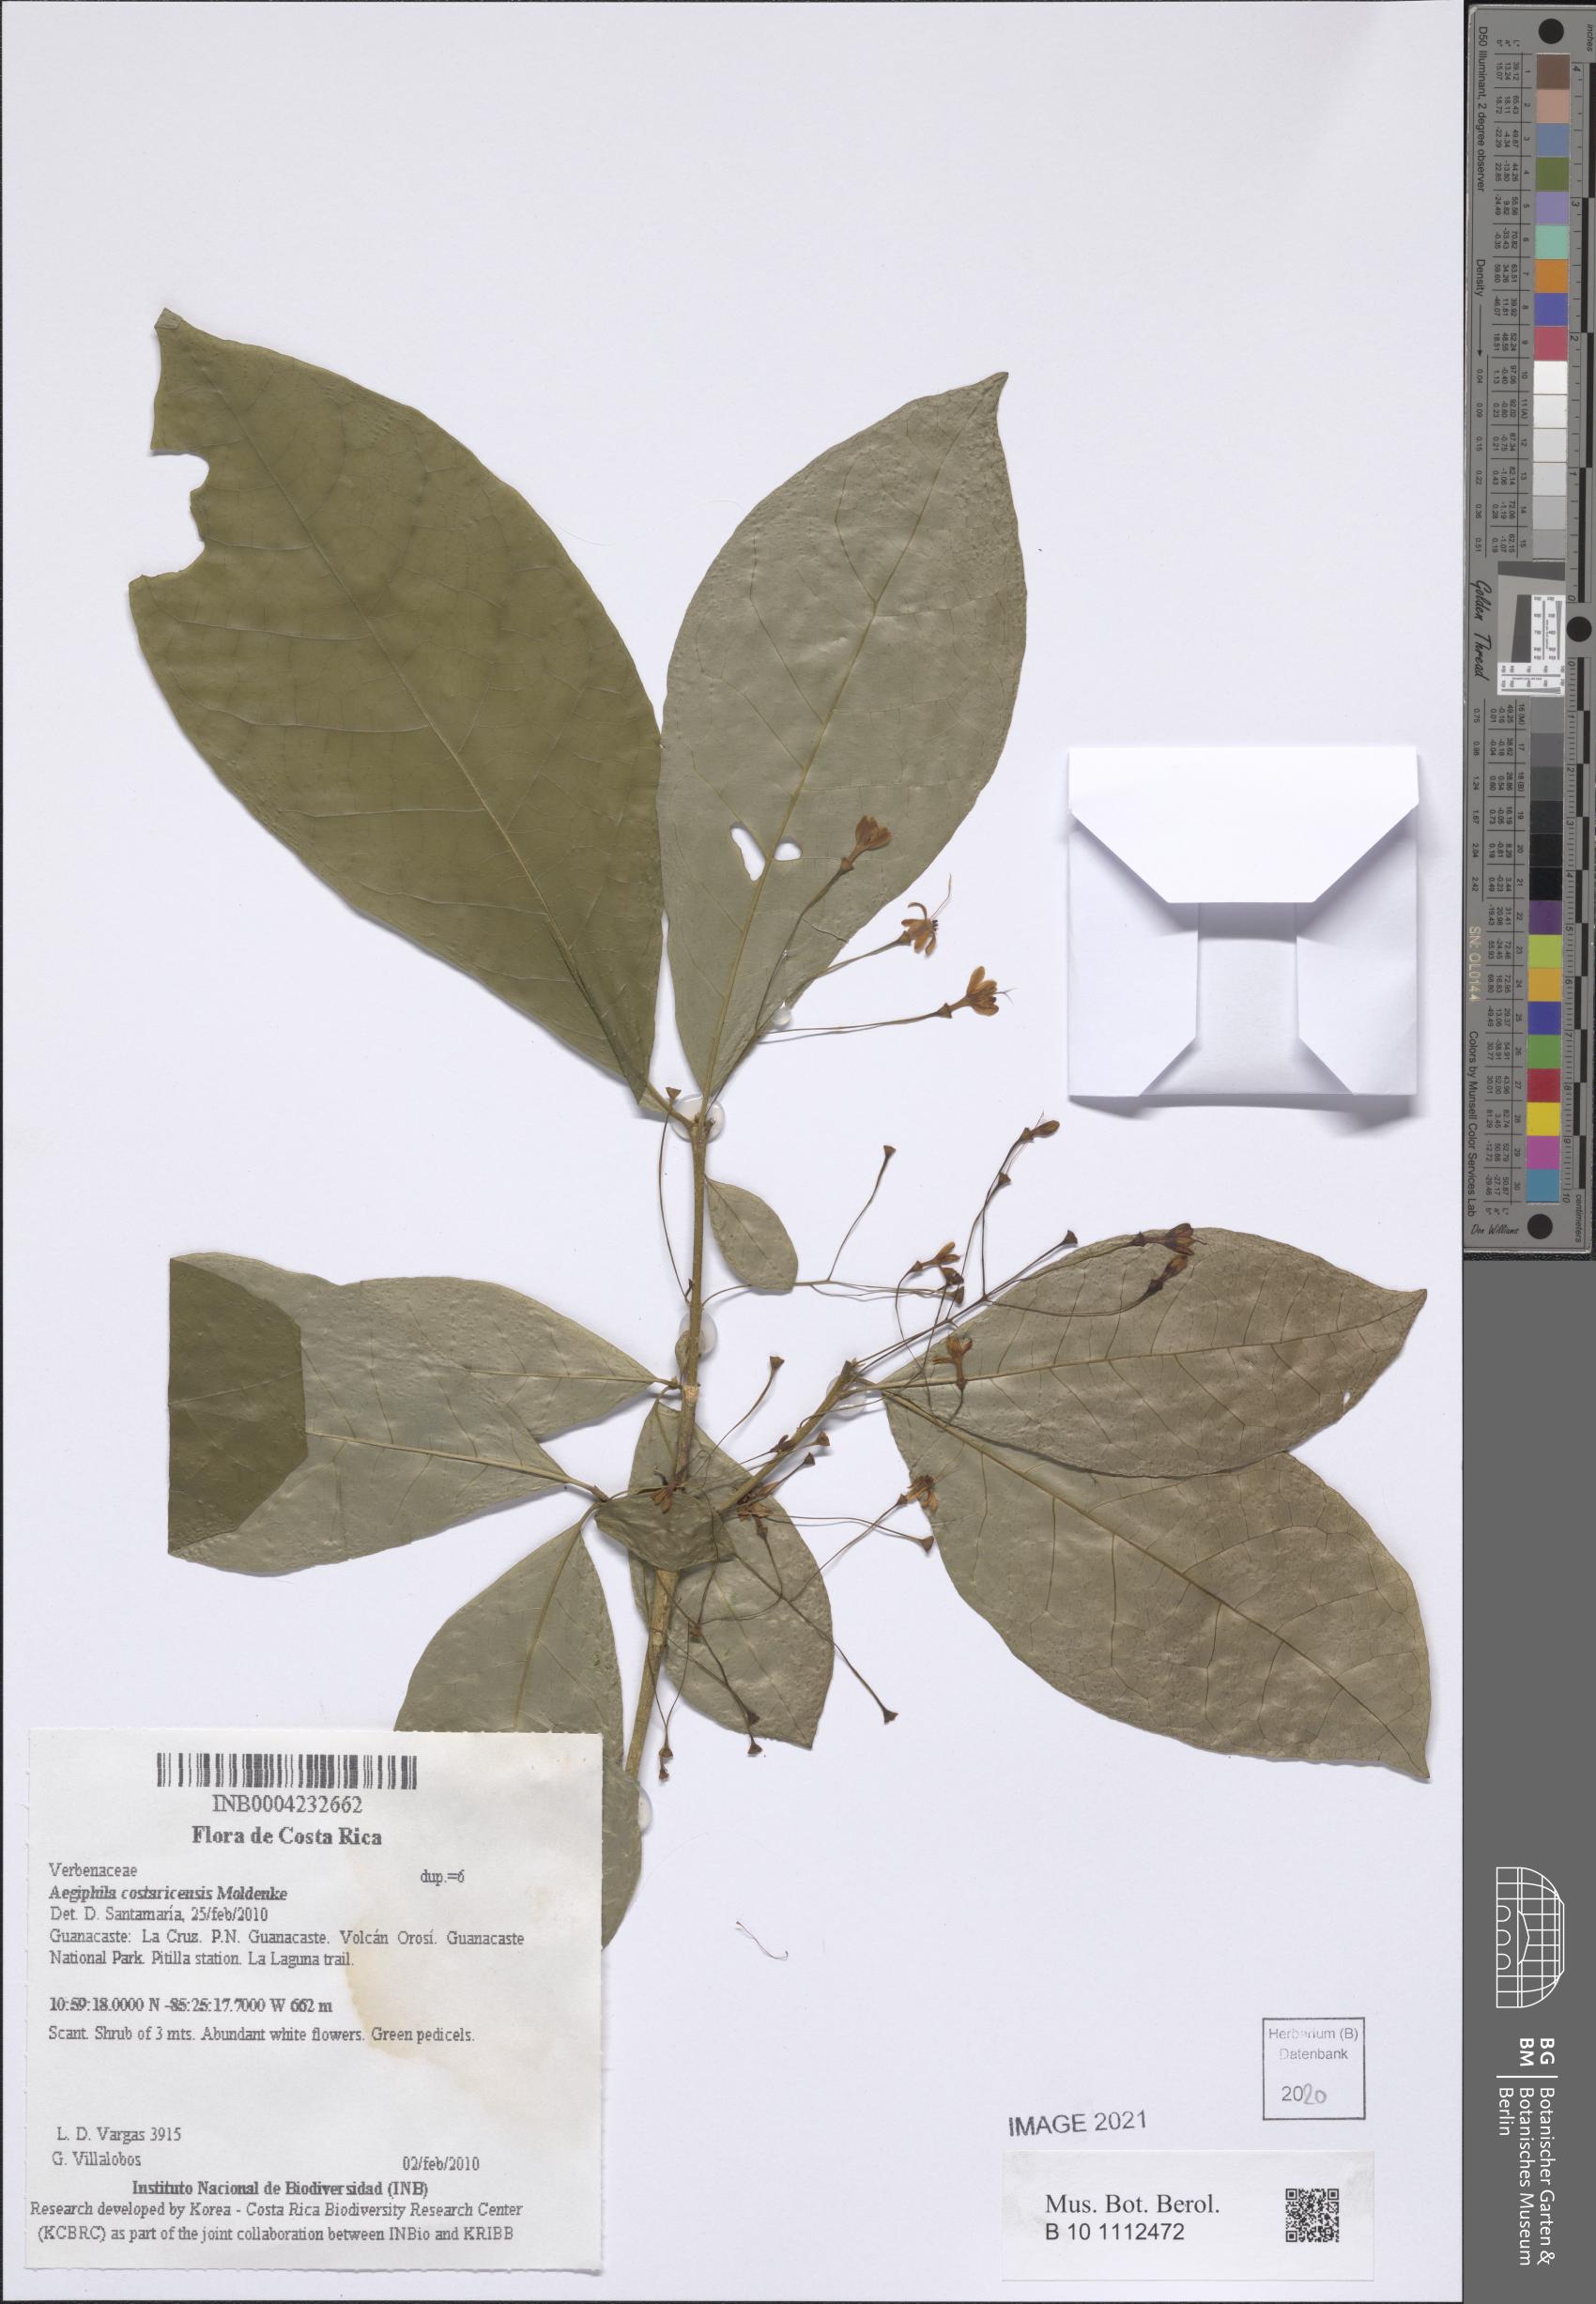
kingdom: Plantae
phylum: Tracheophyta
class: Magnoliopsida
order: Lamiales
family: Lamiaceae
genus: Aegiphila
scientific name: Aegiphila costaricensis
